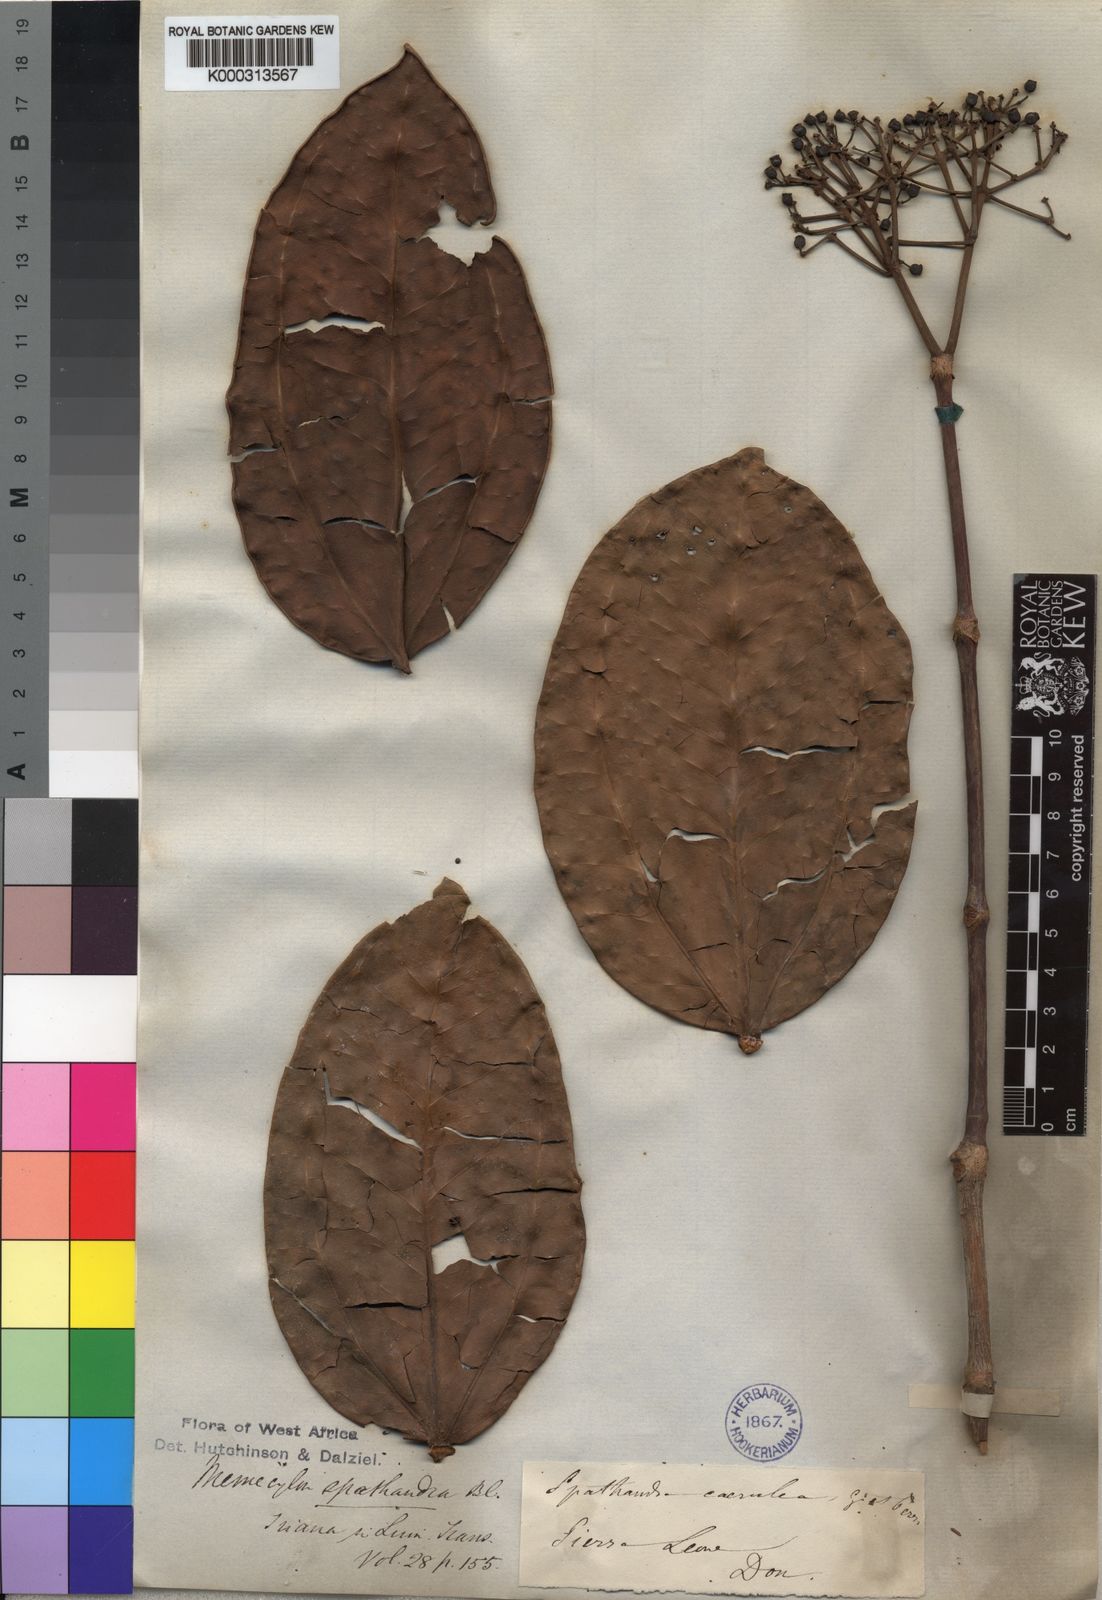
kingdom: Plantae
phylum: Tracheophyta
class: Magnoliopsida
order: Myrtales
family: Melastomataceae
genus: Spathandra
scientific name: Spathandra blakeoides
